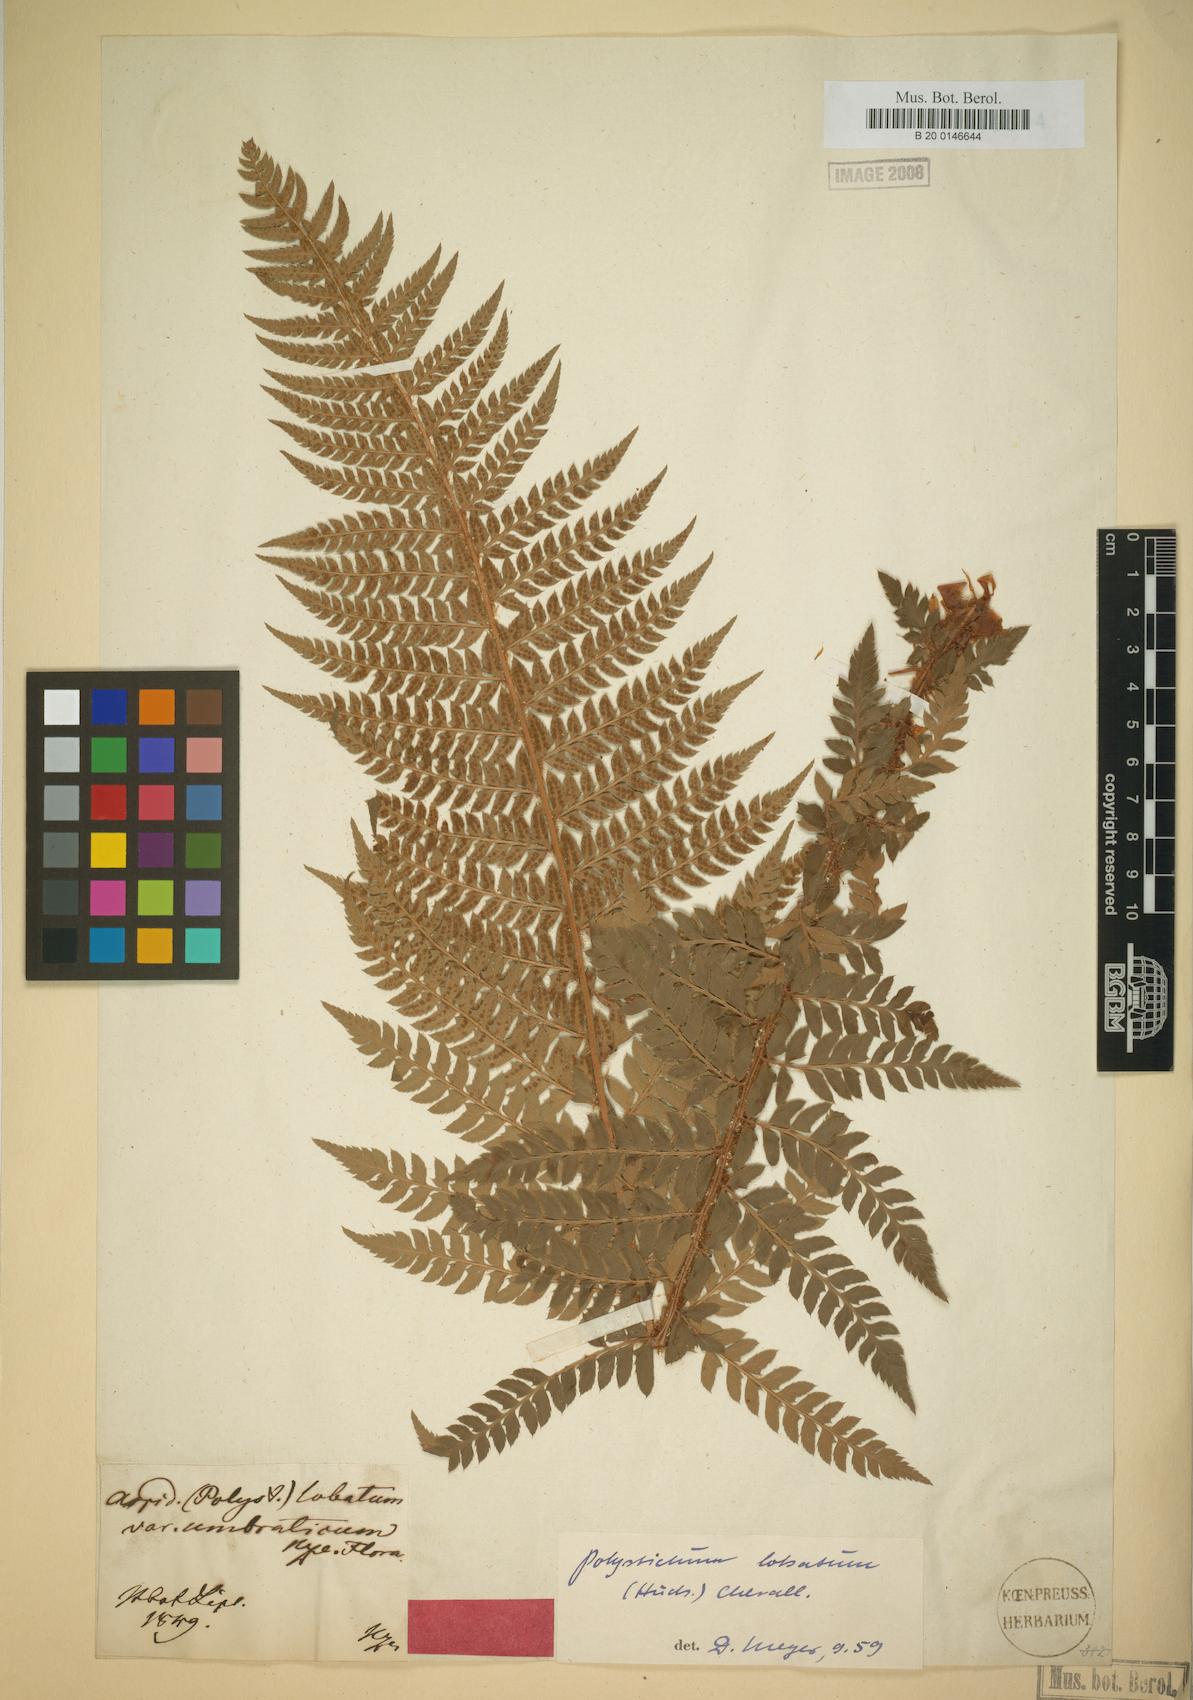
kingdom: Plantae
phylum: Tracheophyta
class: Polypodiopsida
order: Polypodiales
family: Dryopteridaceae
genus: Polystichum
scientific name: Polystichum aculeatum
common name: Hard shield-fern
